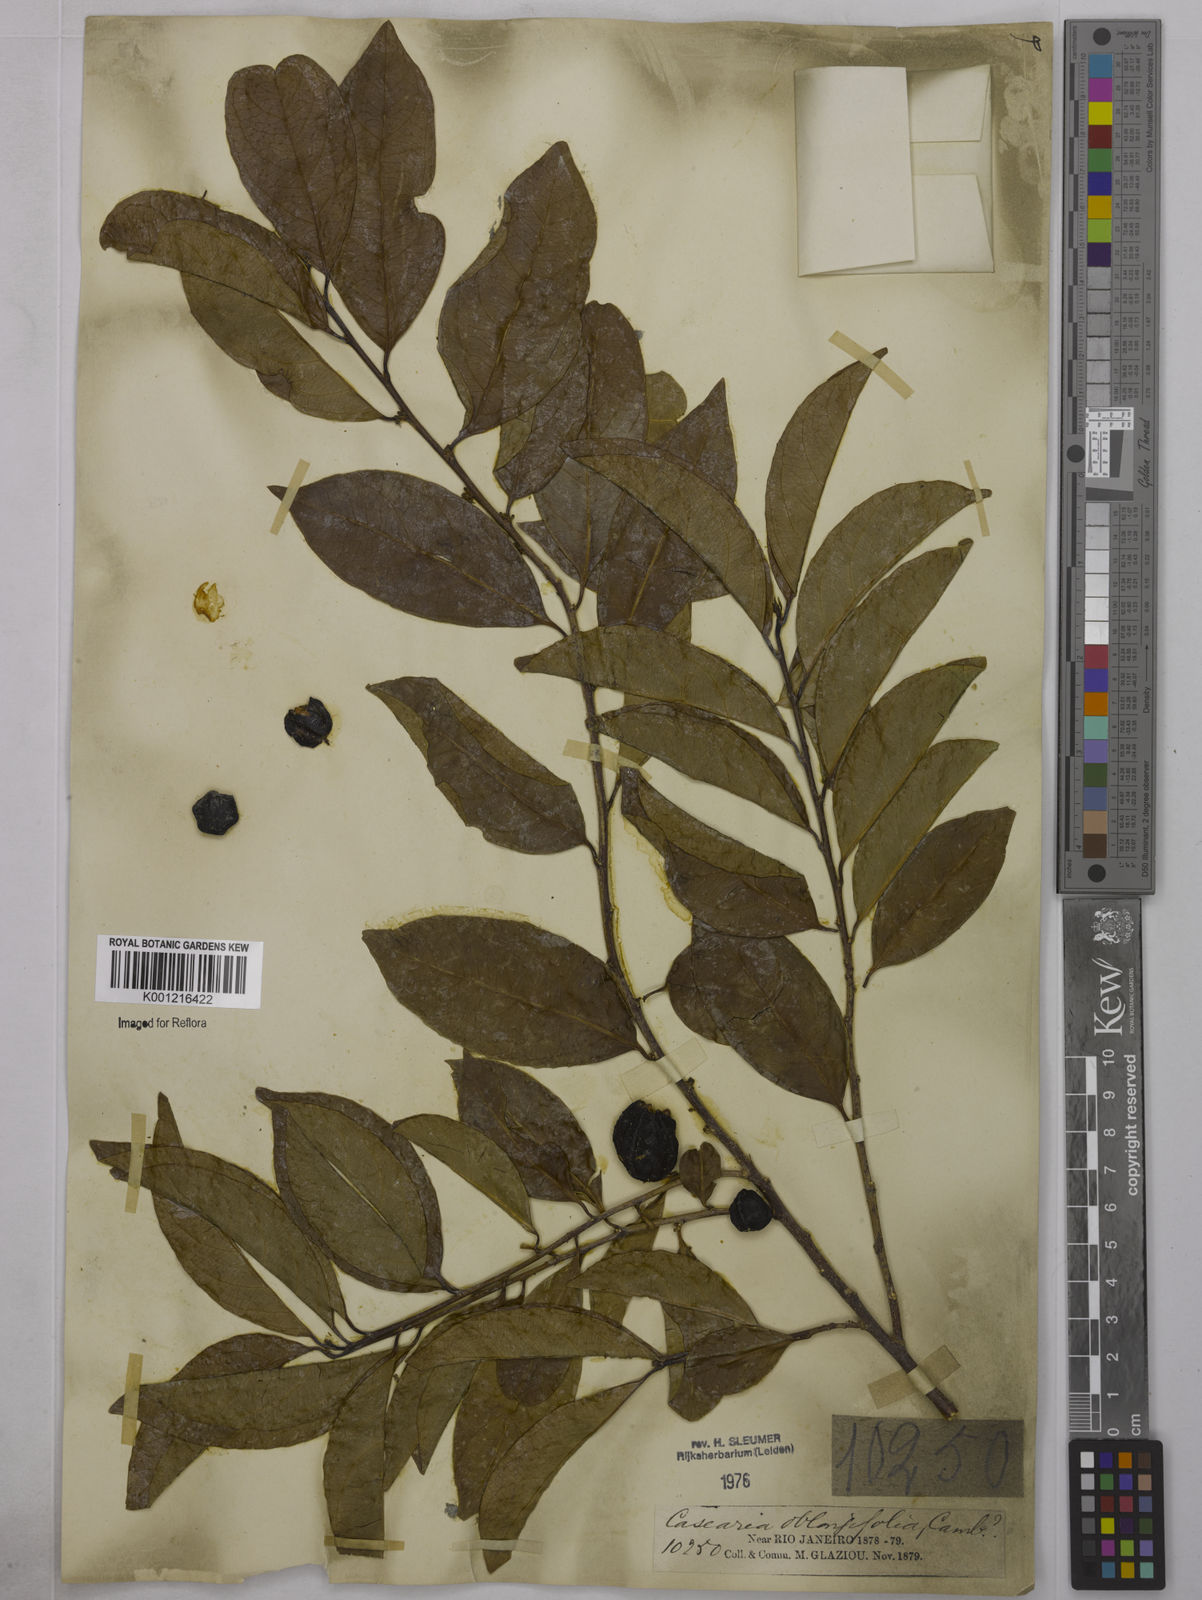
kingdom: Plantae
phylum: Tracheophyta
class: Magnoliopsida
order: Malpighiales
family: Salicaceae
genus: Casearia
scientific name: Casearia oblongifolia
